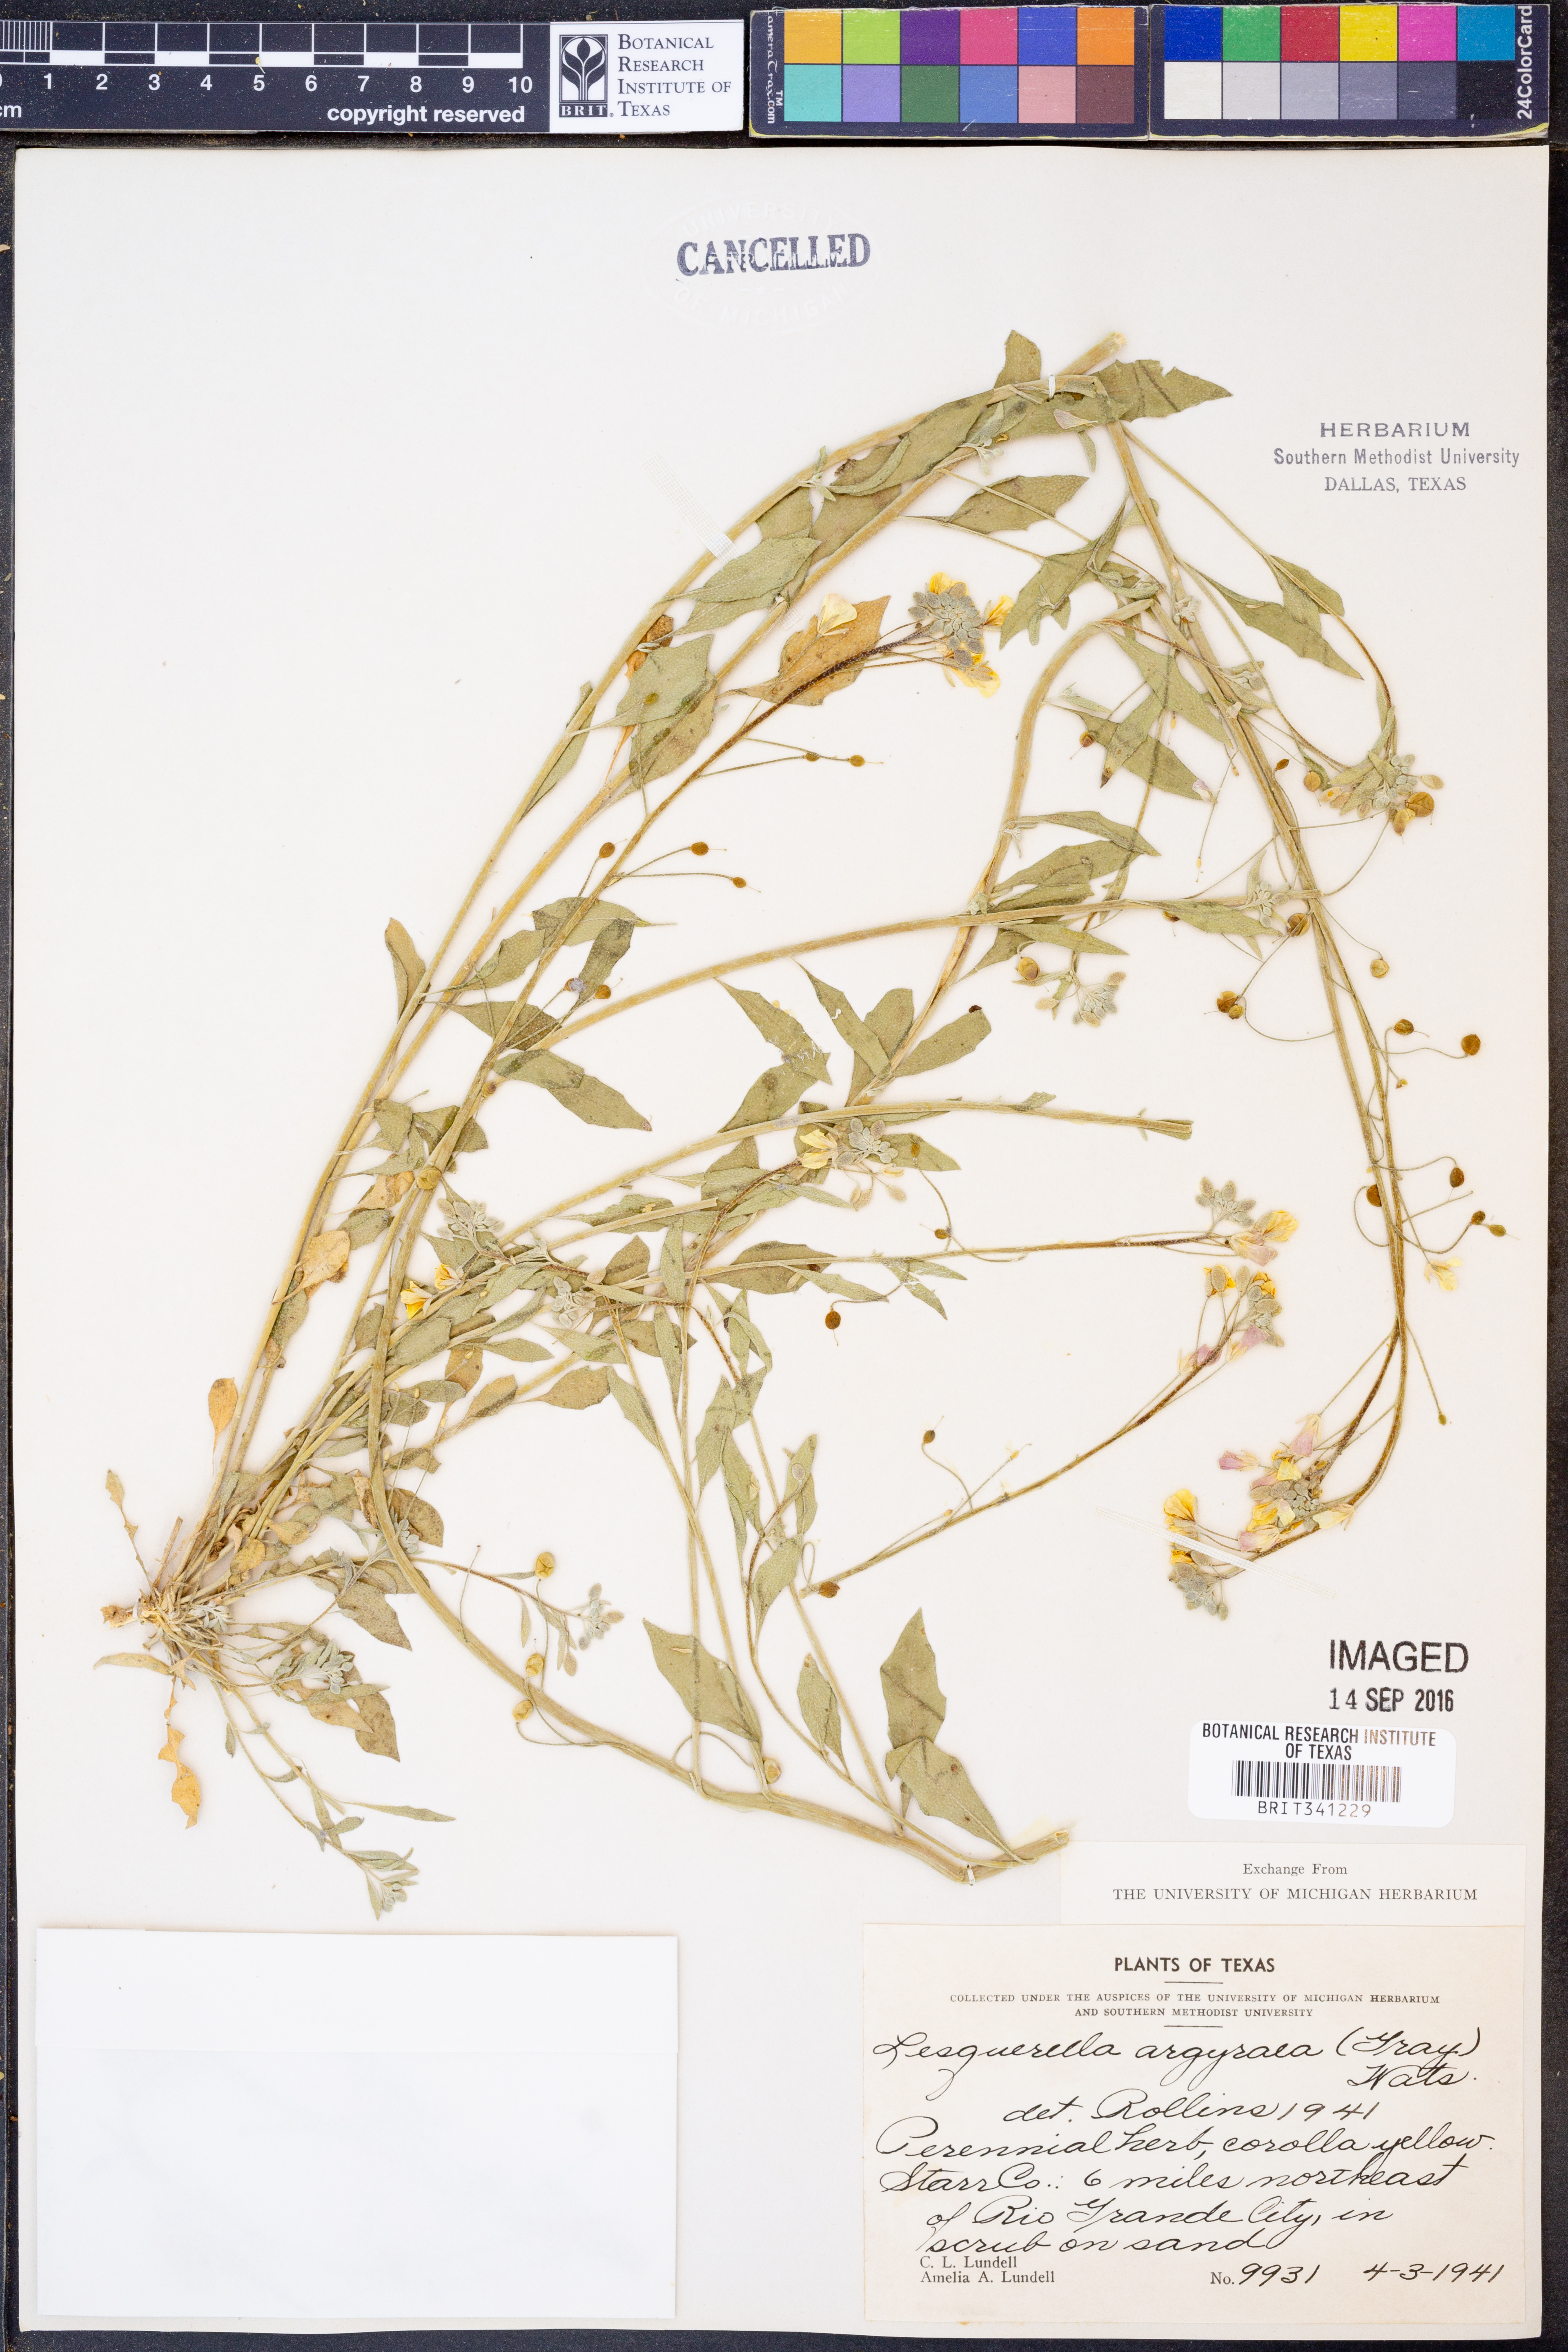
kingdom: Plantae
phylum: Tracheophyta
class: Magnoliopsida
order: Brassicales
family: Brassicaceae
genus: Physaria
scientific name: Physaria argyraea
